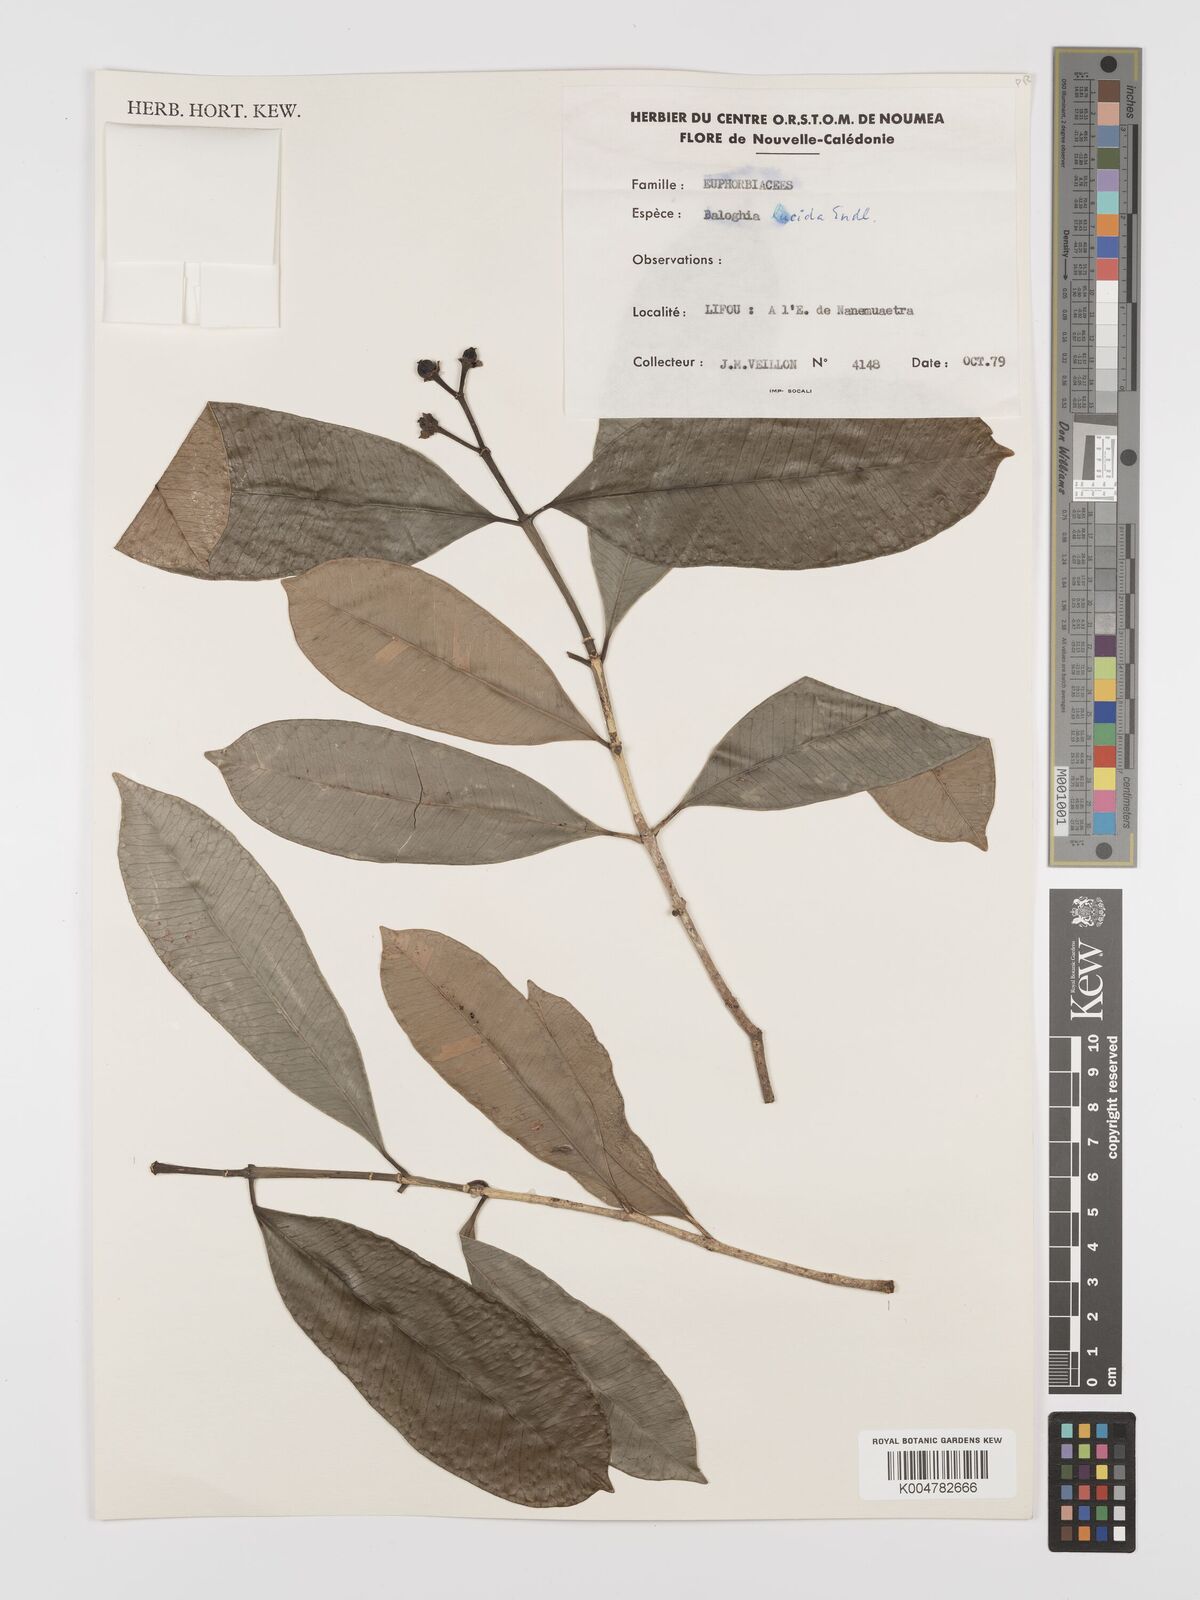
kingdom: Plantae
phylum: Tracheophyta
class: Magnoliopsida
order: Malpighiales
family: Euphorbiaceae
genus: Baloghia
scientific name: Baloghia inophylla
